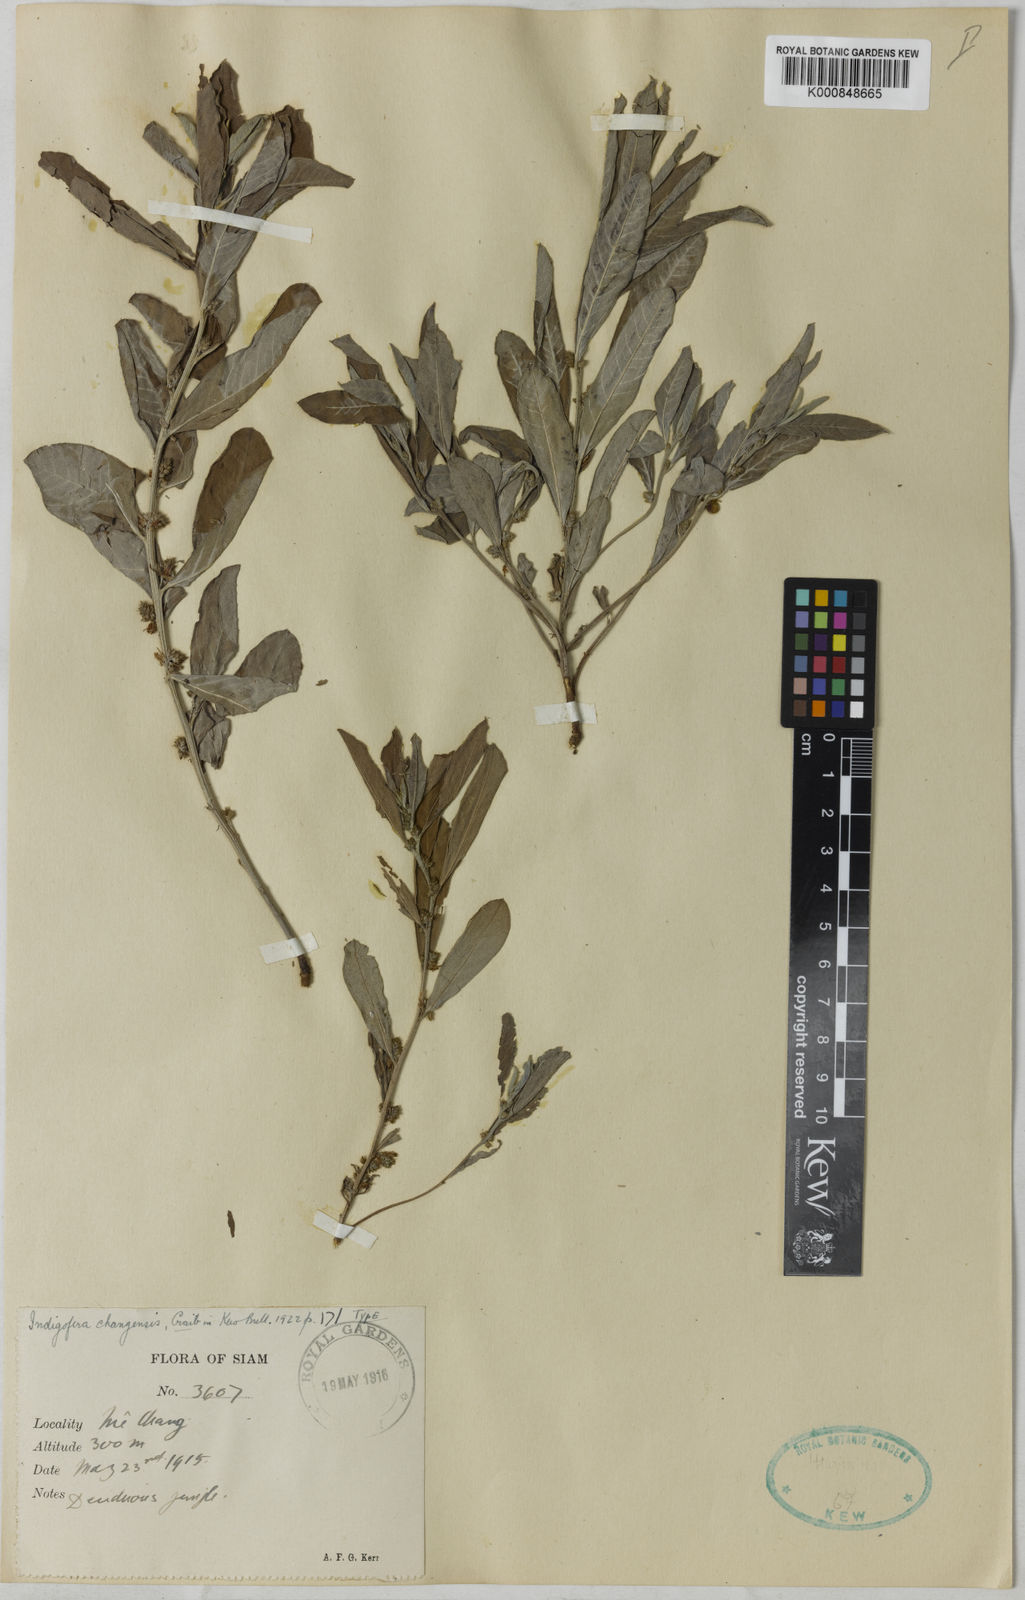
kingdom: Plantae
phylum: Tracheophyta
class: Magnoliopsida
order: Fabales
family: Fabaceae
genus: Indigofera
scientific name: Indigofera squalida
